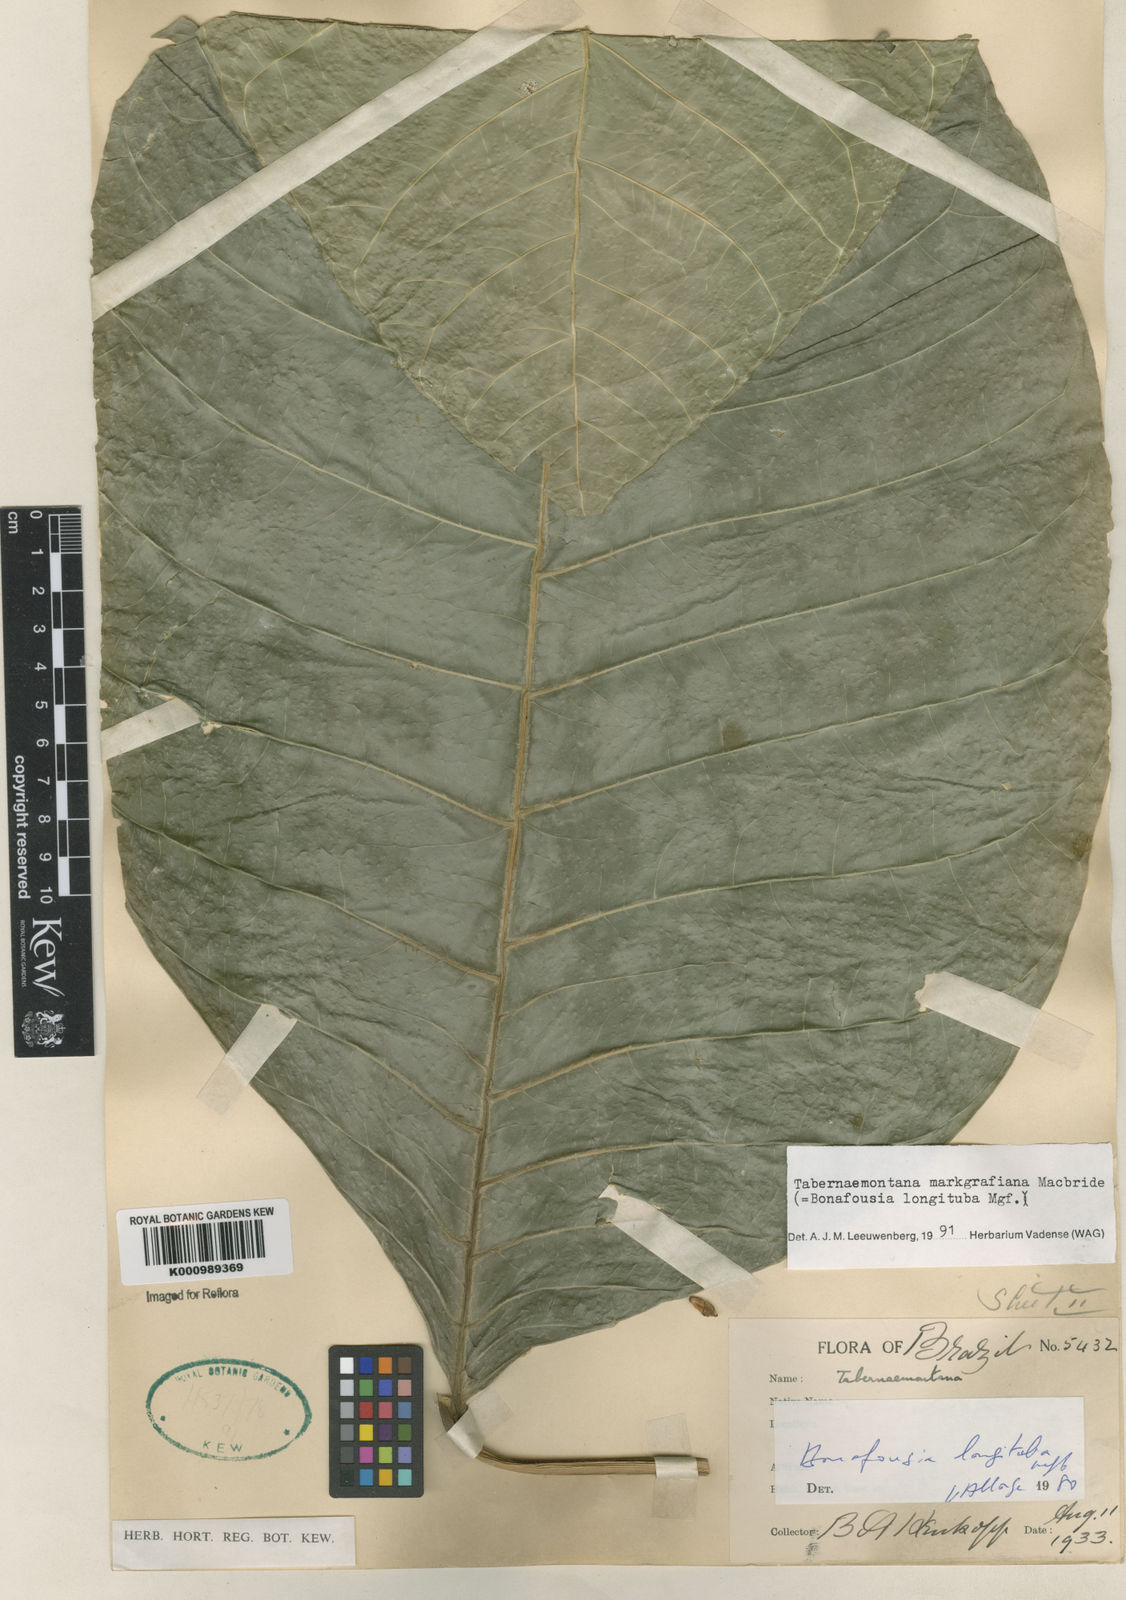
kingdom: Plantae
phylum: Tracheophyta
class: Magnoliopsida
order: Gentianales
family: Apocynaceae
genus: Tabernaemontana
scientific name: Tabernaemontana markgrafiana
